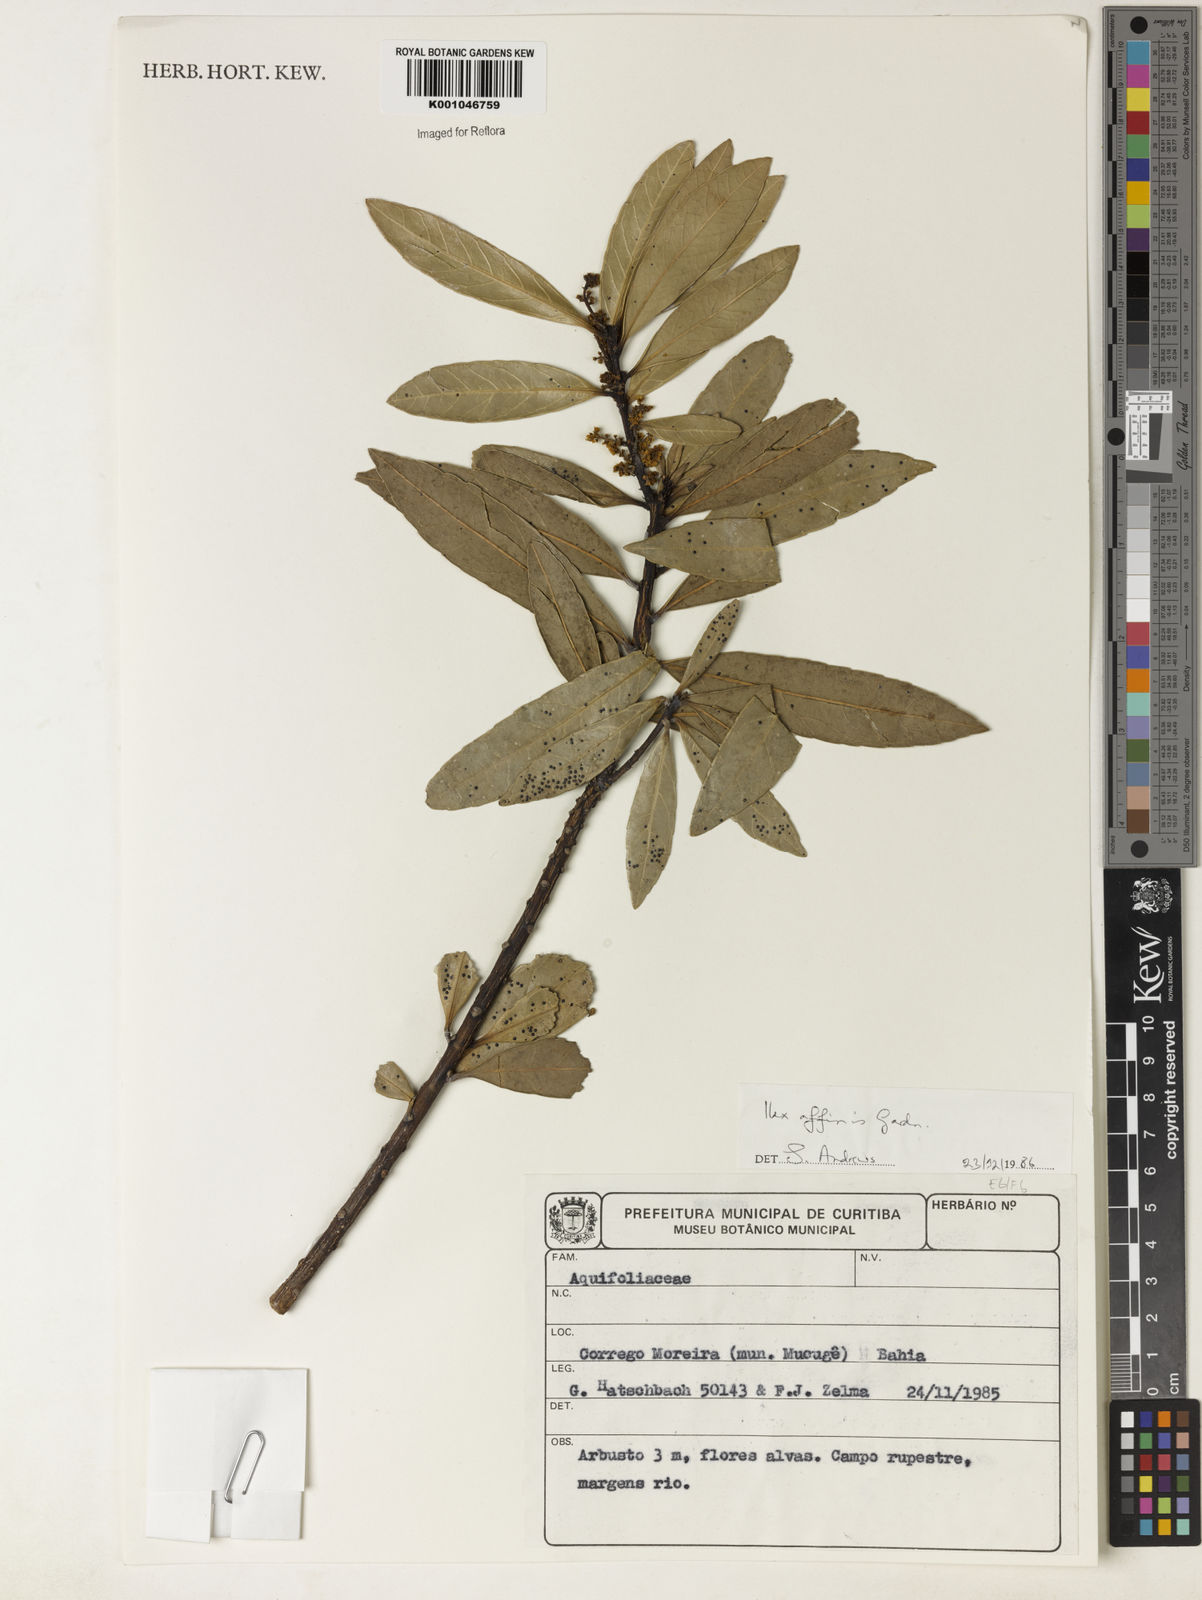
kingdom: Plantae
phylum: Tracheophyta
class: Magnoliopsida
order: Aquifoliales
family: Aquifoliaceae
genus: Ilex
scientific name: Ilex affinis
